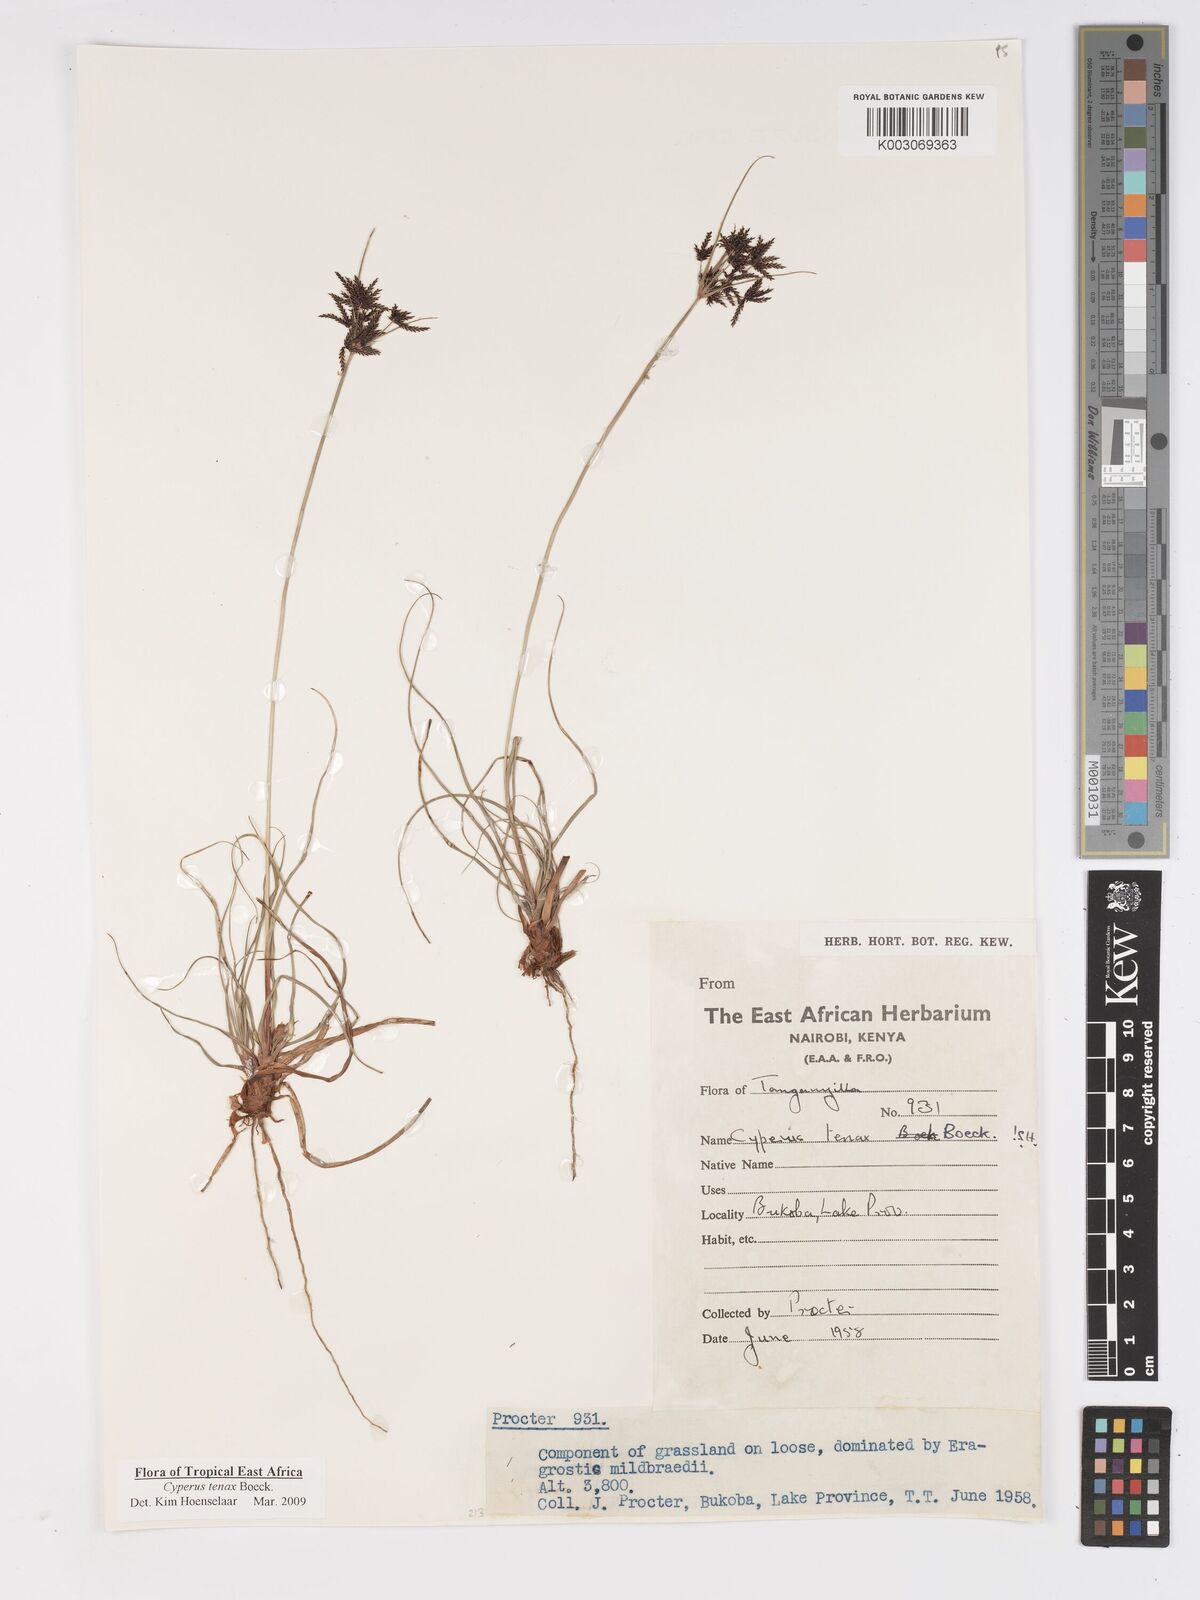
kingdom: Plantae
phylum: Tracheophyta
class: Liliopsida
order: Poales
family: Cyperaceae
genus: Cyperus
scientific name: Cyperus tenax
